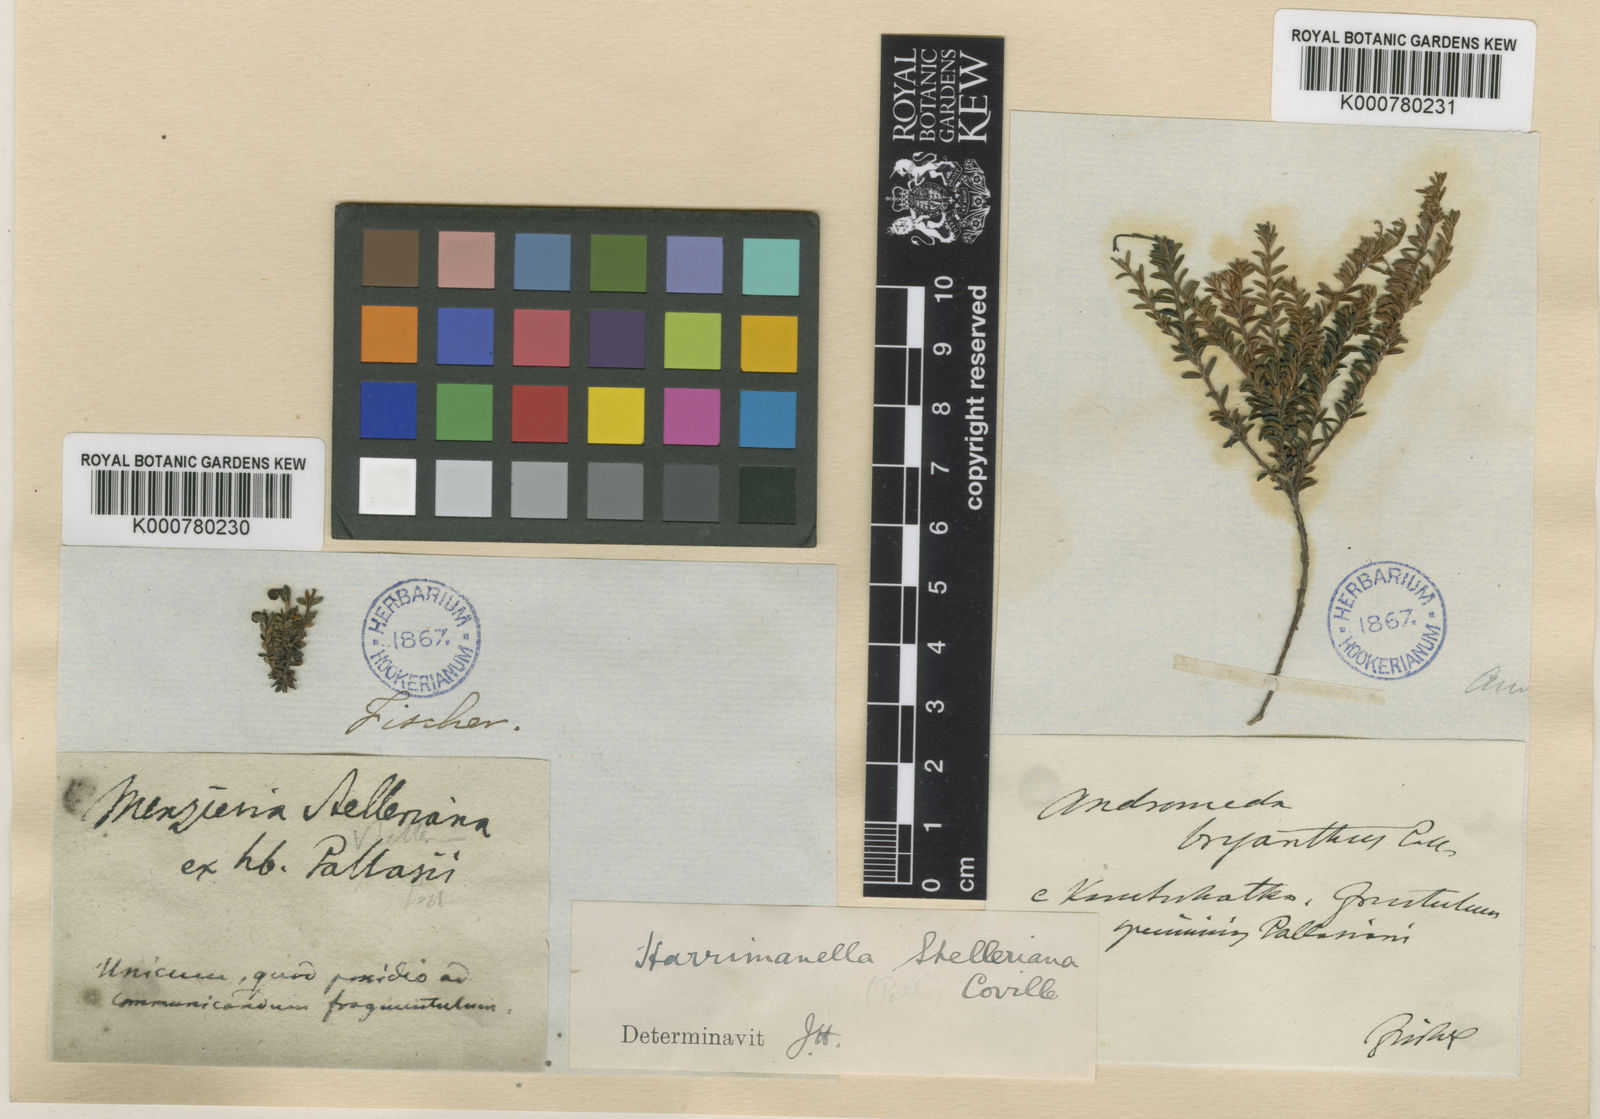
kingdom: Plantae
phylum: Tracheophyta
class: Magnoliopsida
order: Ericales
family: Ericaceae
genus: Harrimanella
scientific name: Harrimanella stelleriana
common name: Alaska bell heather
